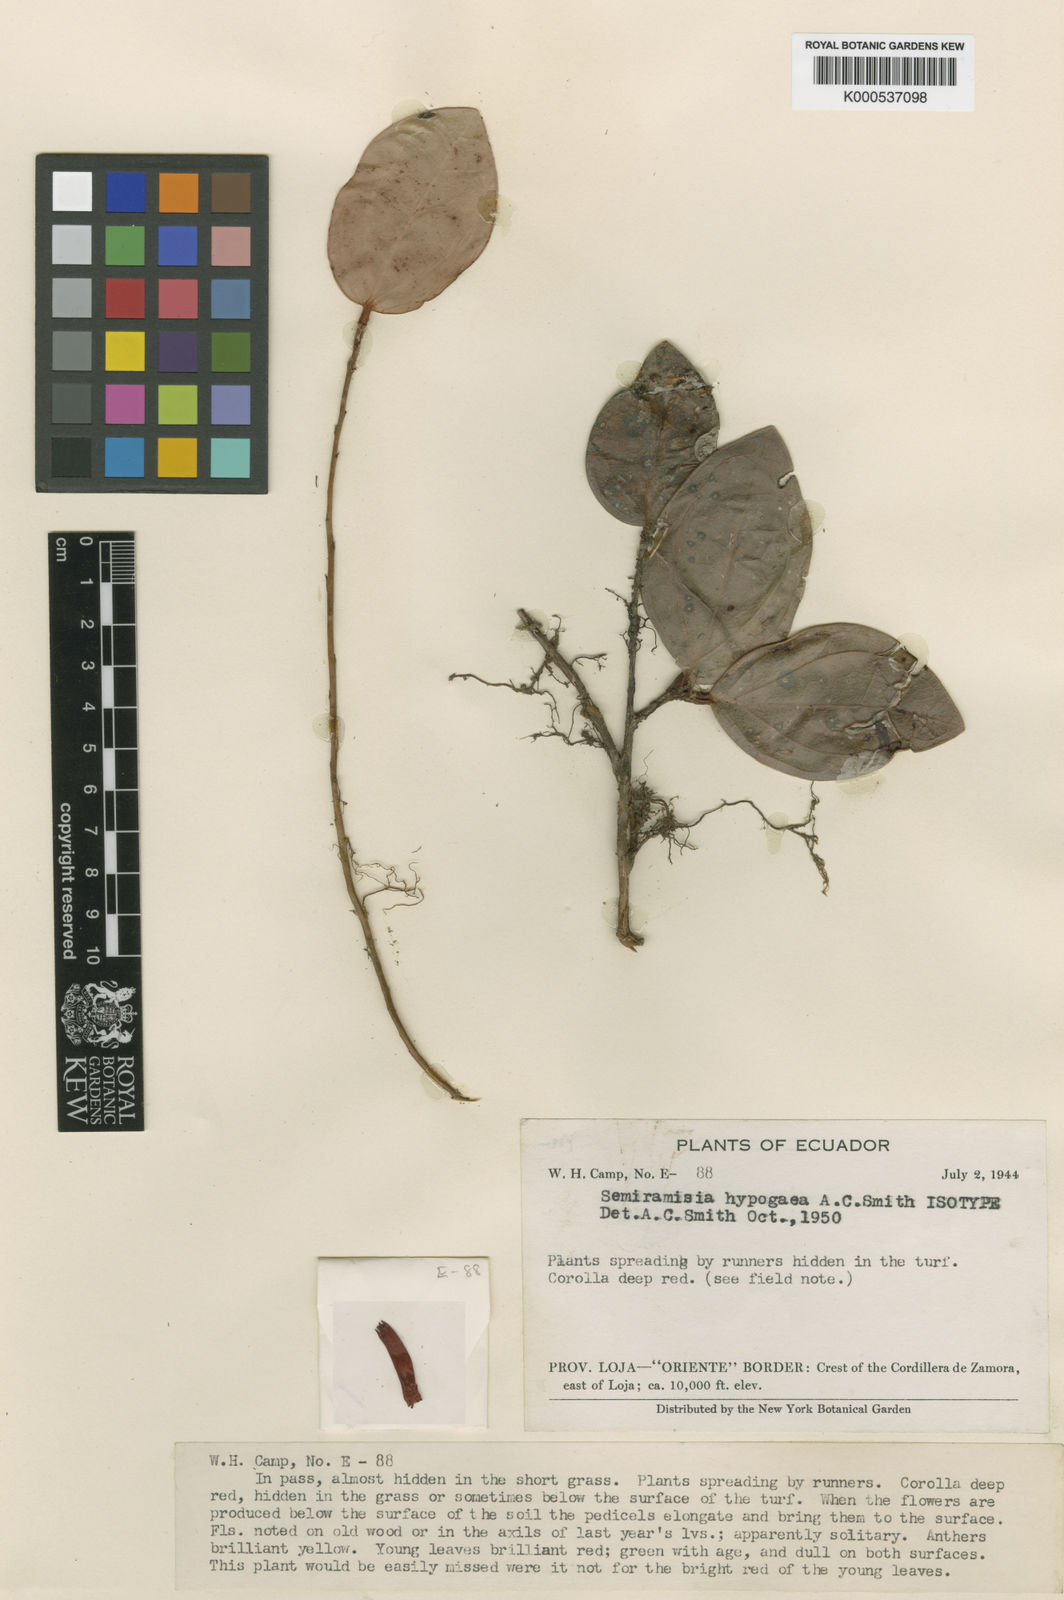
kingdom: Plantae
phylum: Tracheophyta
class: Magnoliopsida
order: Ericales
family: Ericaceae
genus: Oreanthes
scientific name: Oreanthes hypogaeus
